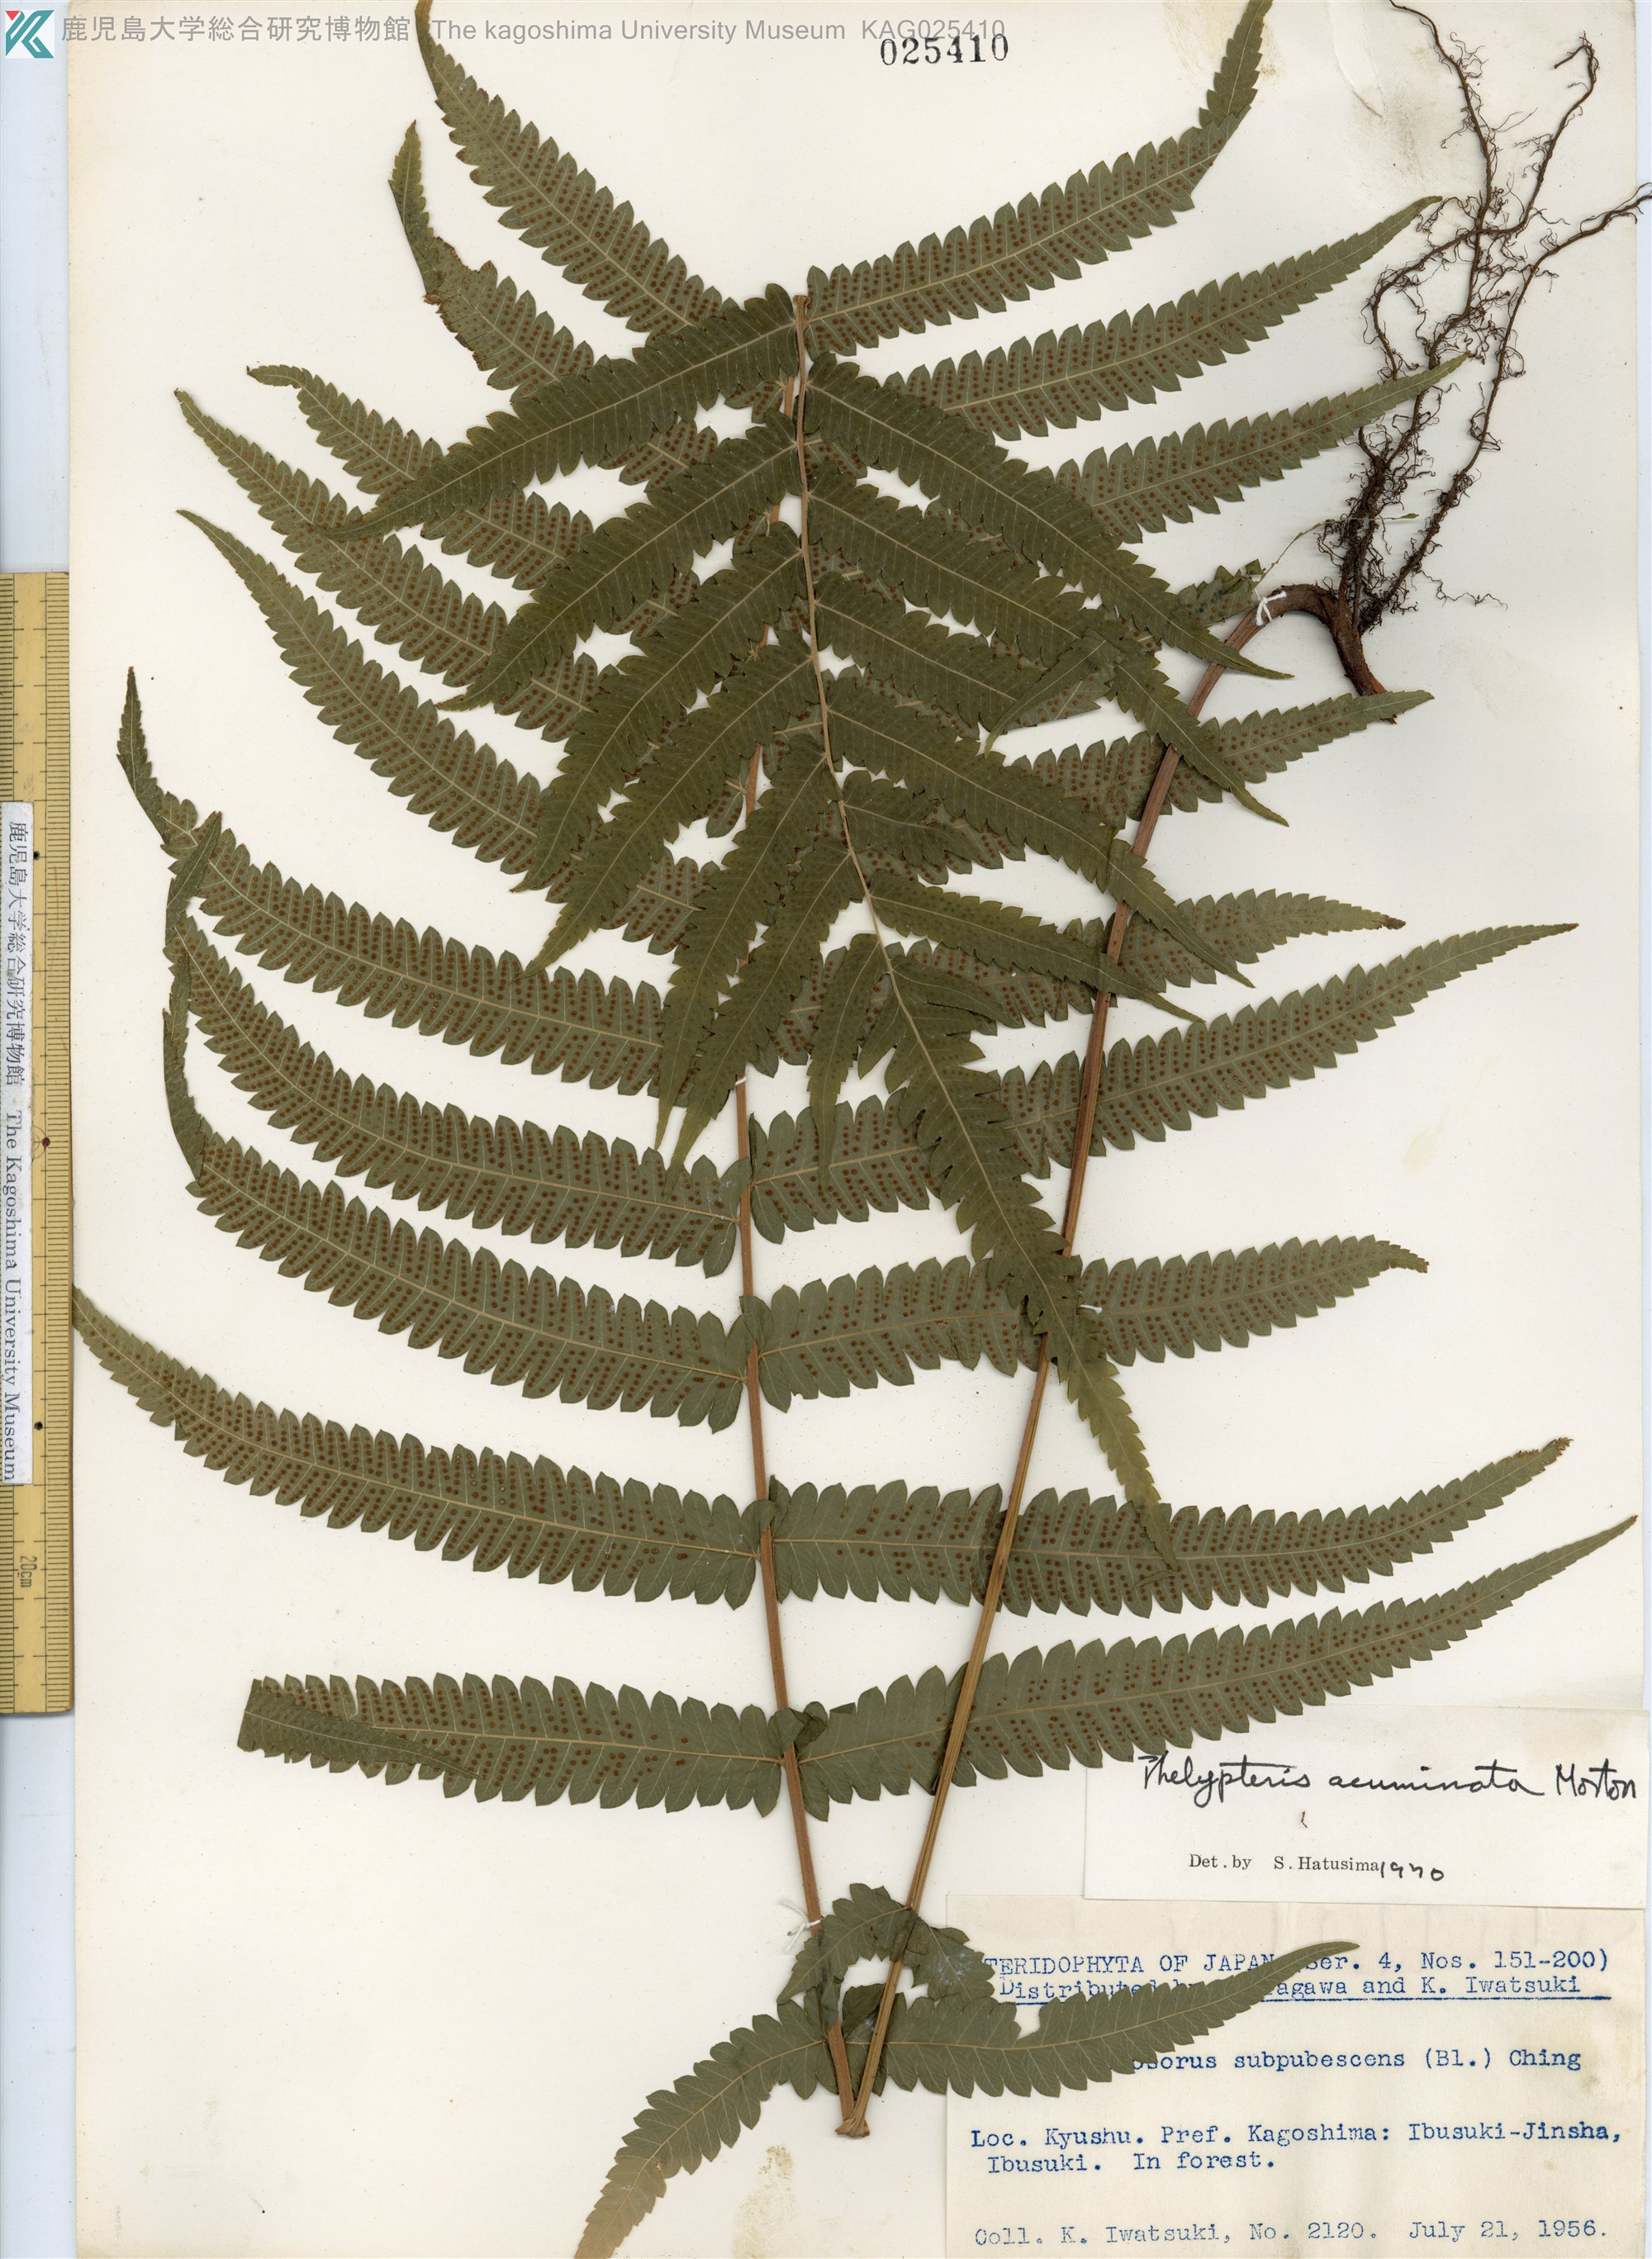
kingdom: Plantae
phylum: Tracheophyta
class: Polypodiopsida
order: Polypodiales
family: Thelypteridaceae
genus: Christella
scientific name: Christella acuminata
